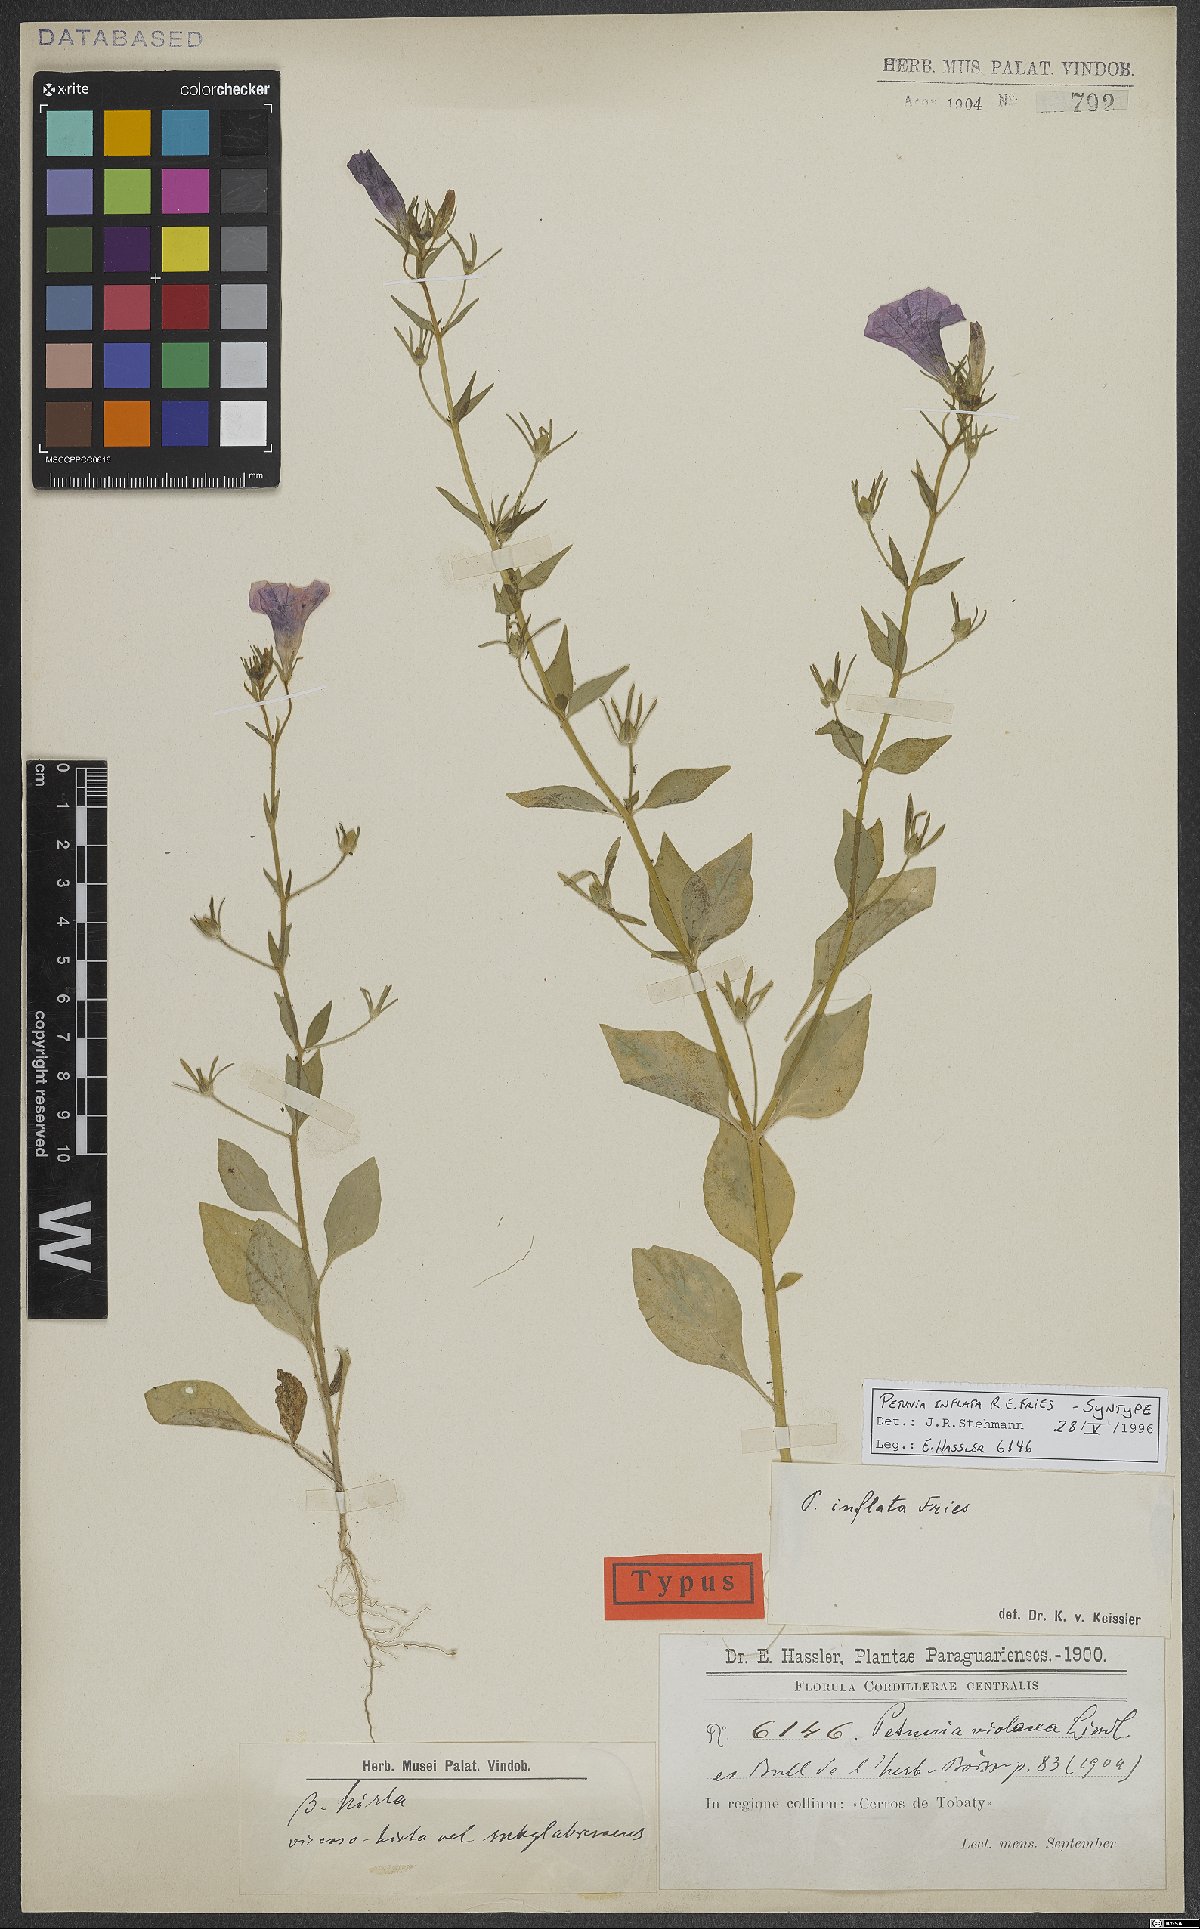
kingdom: Plantae
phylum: Tracheophyta
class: Magnoliopsida
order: Solanales
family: Solanaceae
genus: Petunia
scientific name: Petunia inflata
